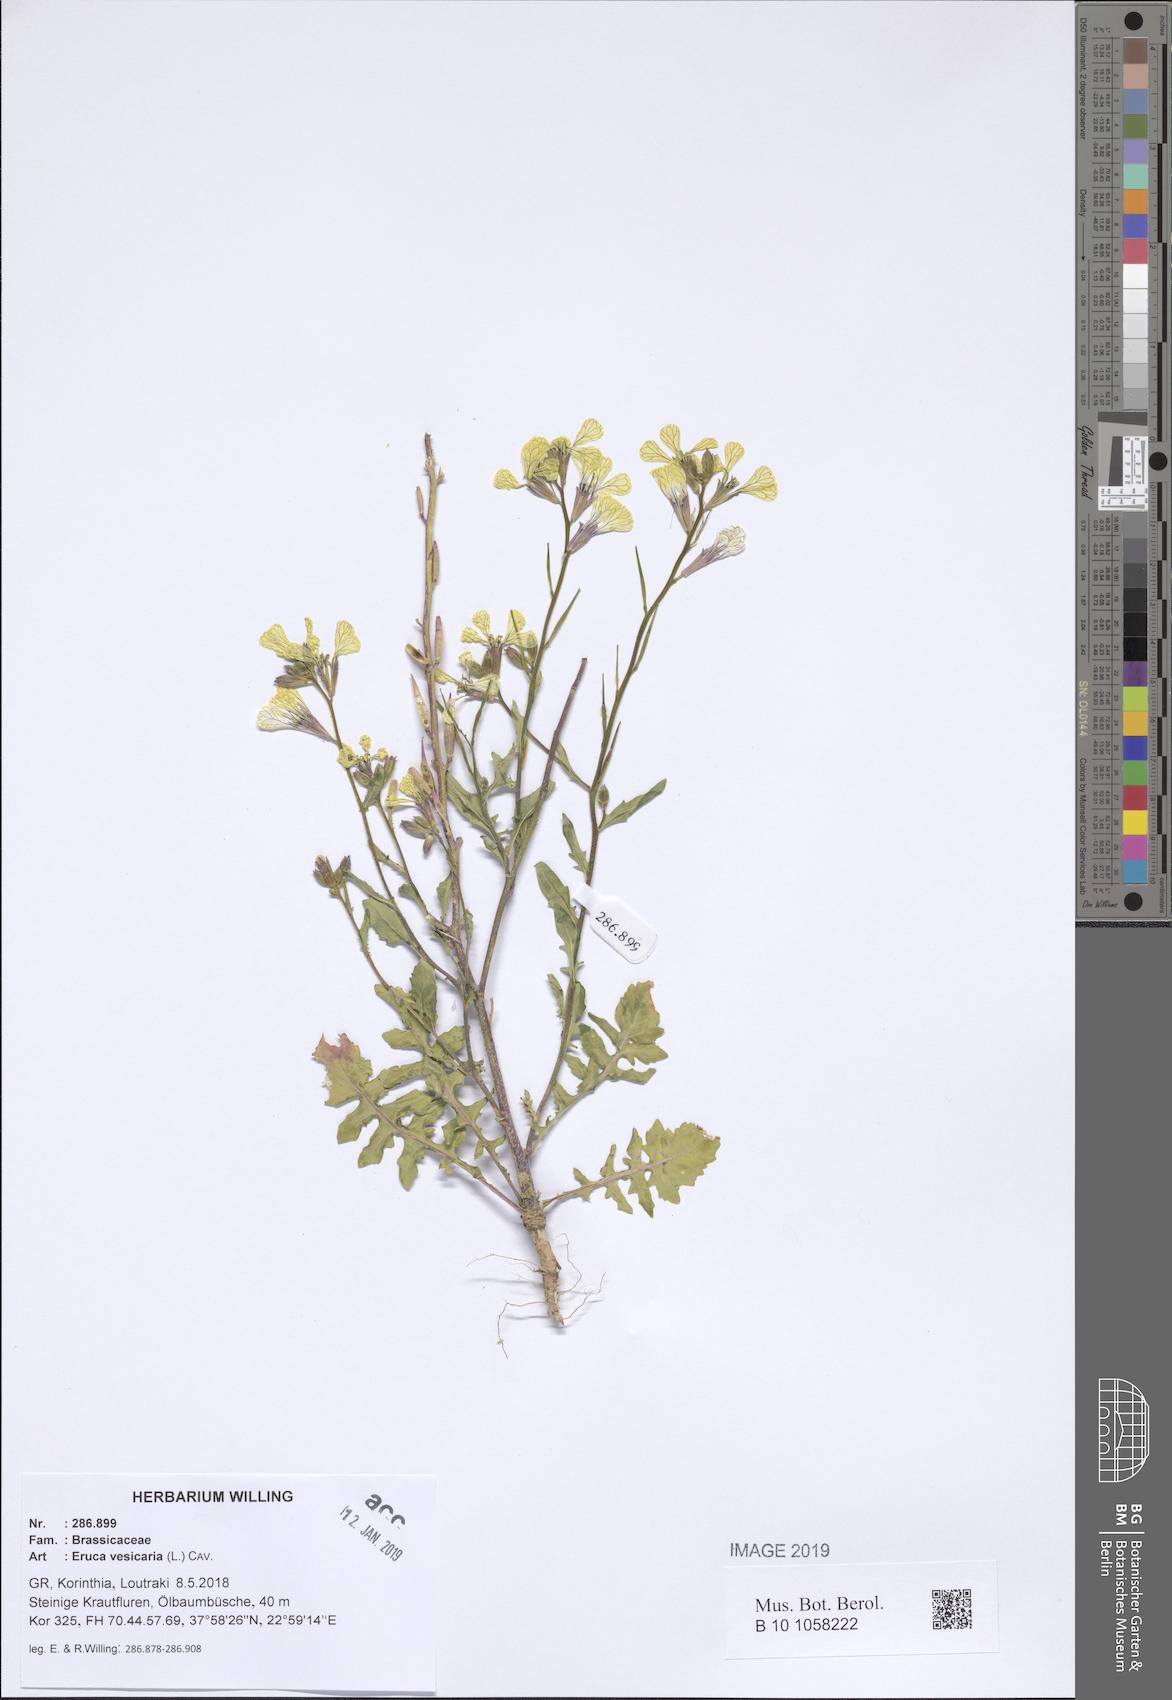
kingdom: Plantae
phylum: Tracheophyta
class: Magnoliopsida
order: Brassicales
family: Brassicaceae
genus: Eruca
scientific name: Eruca vesicaria
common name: Garden rocket
